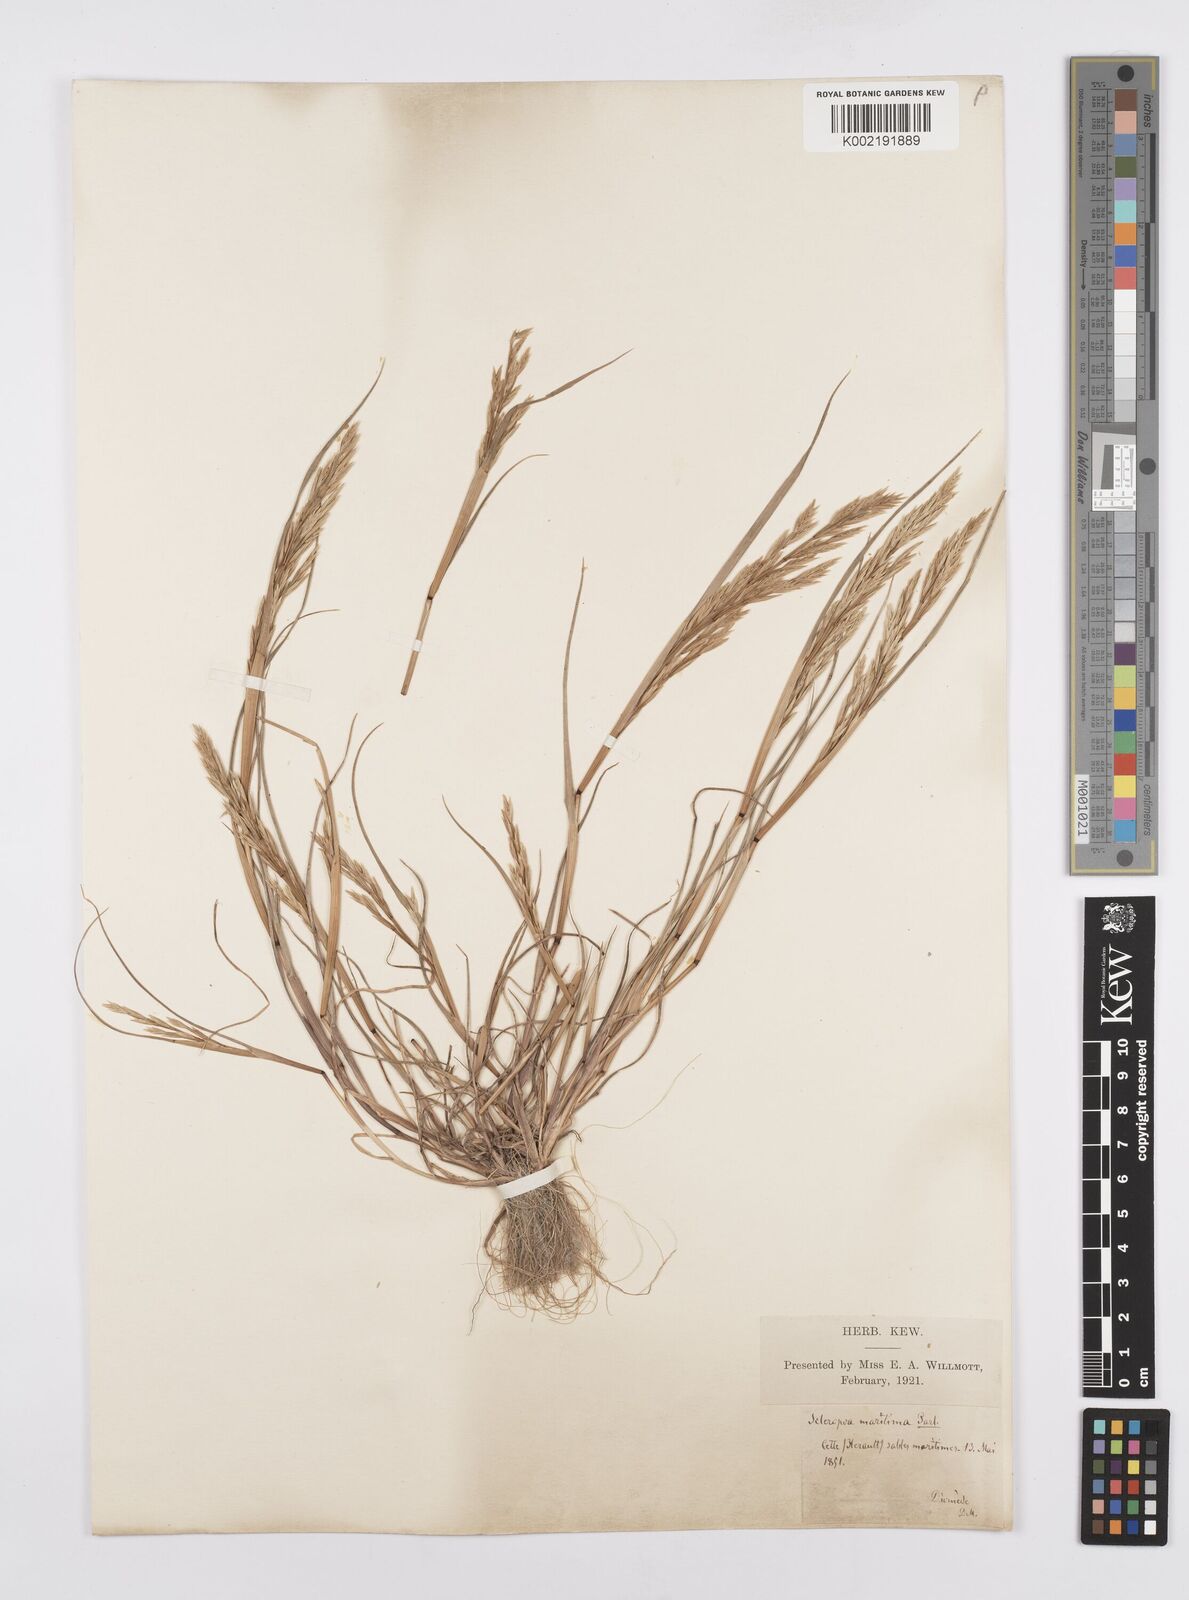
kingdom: Plantae
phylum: Tracheophyta
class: Liliopsida
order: Poales
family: Poaceae
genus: Cutandia
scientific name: Cutandia maritima
